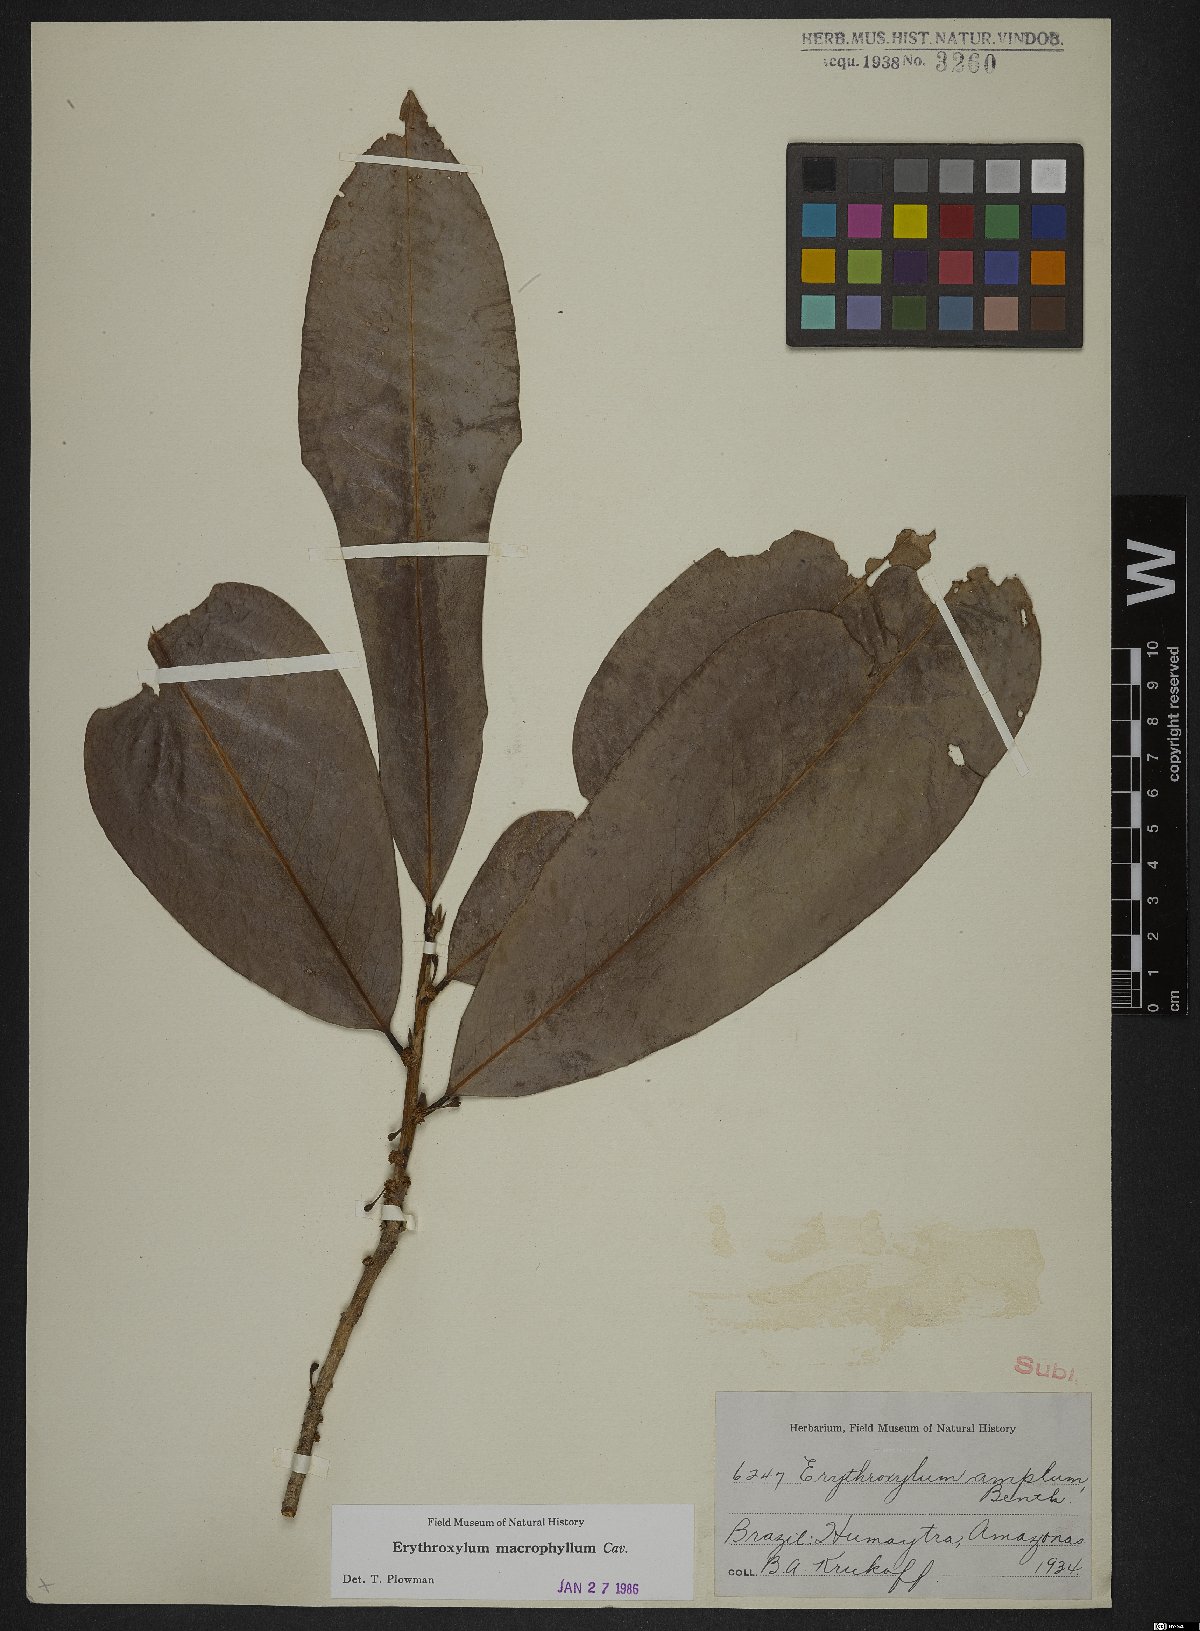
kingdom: Plantae
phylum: Tracheophyta
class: Magnoliopsida
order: Malpighiales
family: Erythroxylaceae
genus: Erythroxylum
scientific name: Erythroxylum macrophyllum
